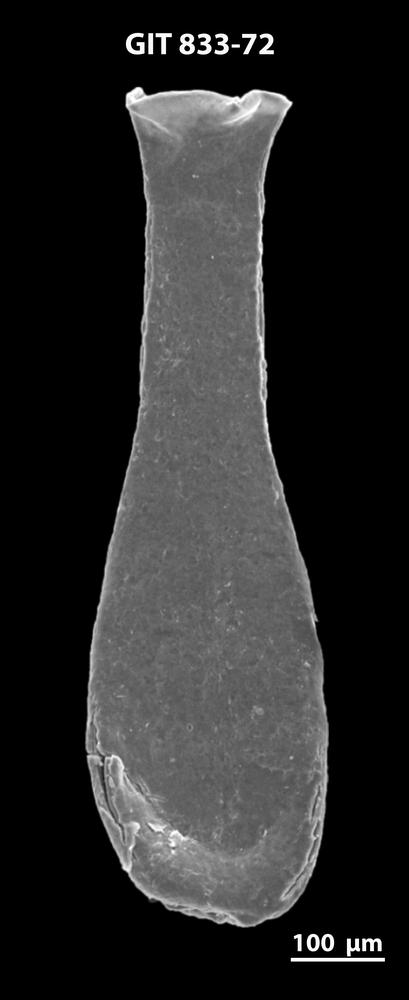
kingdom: Animalia
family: Lagenochitinidae
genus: Lagenochitina
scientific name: Lagenochitina megaesthonica
